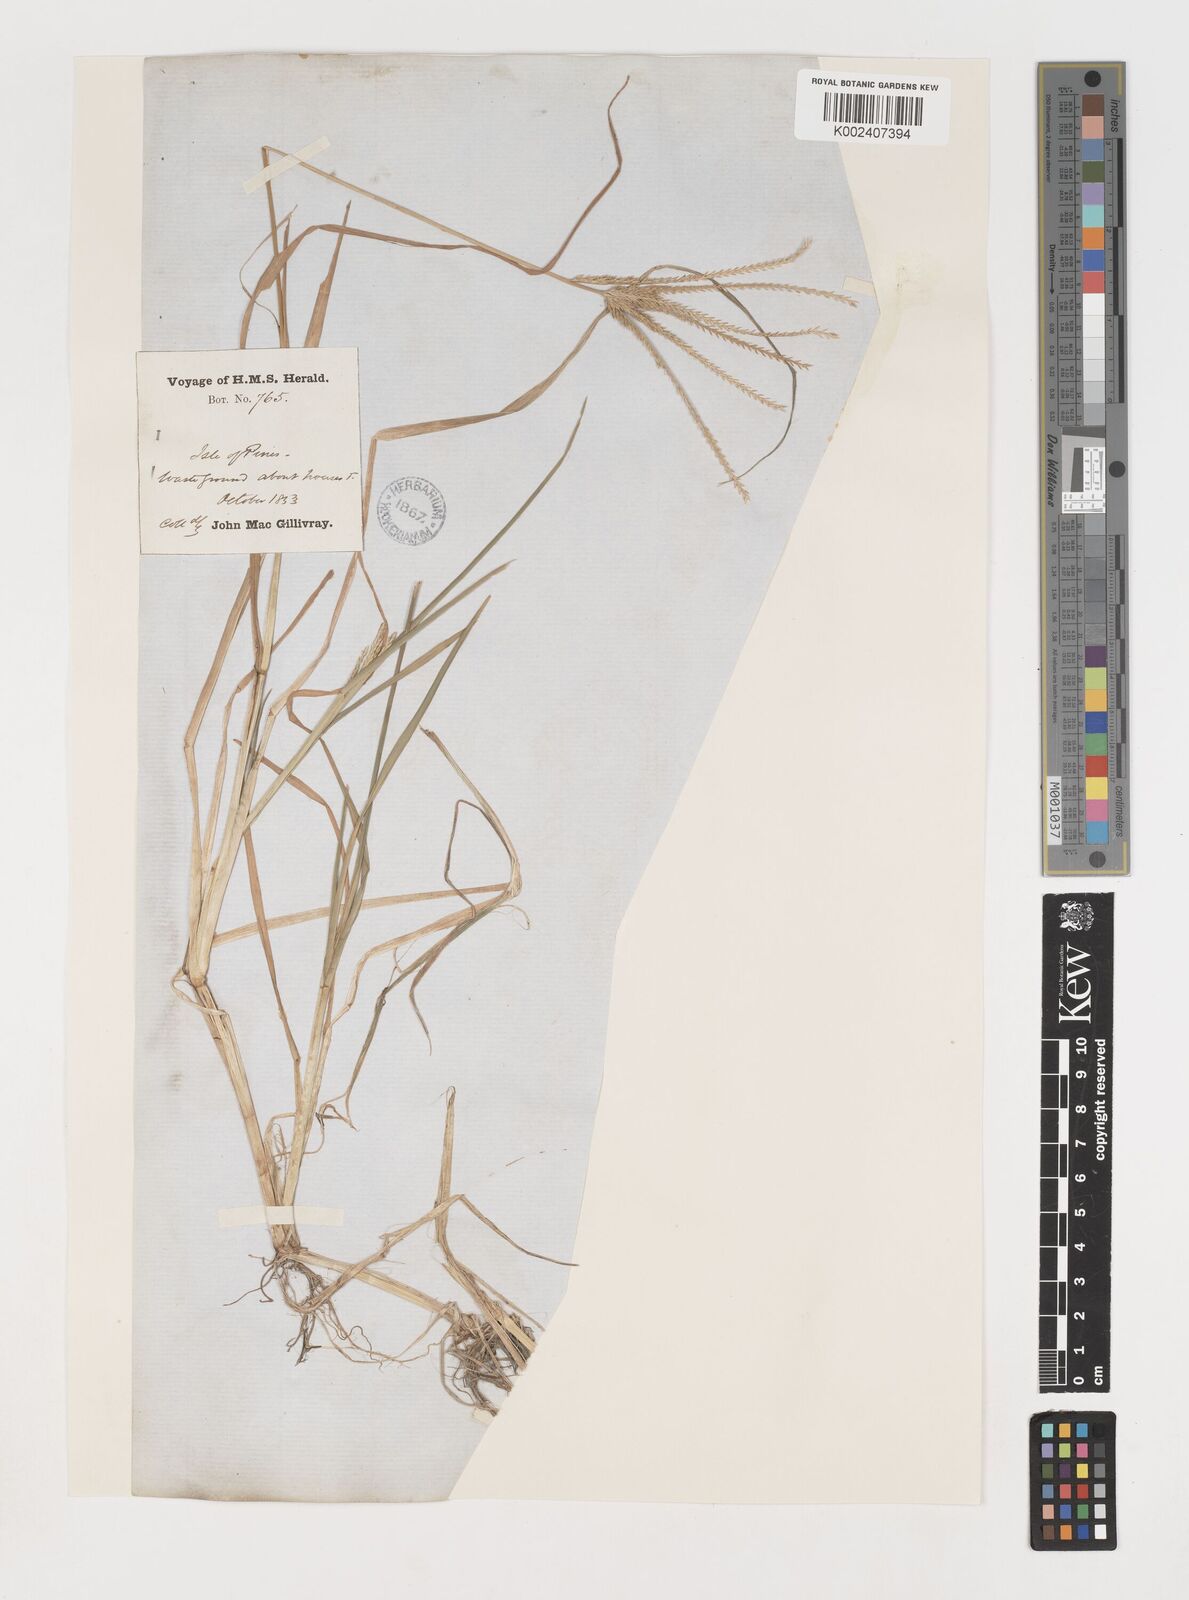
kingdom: Plantae
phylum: Tracheophyta
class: Liliopsida
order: Poales
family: Poaceae
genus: Eleusine
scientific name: Eleusine indica
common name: Yard-grass
